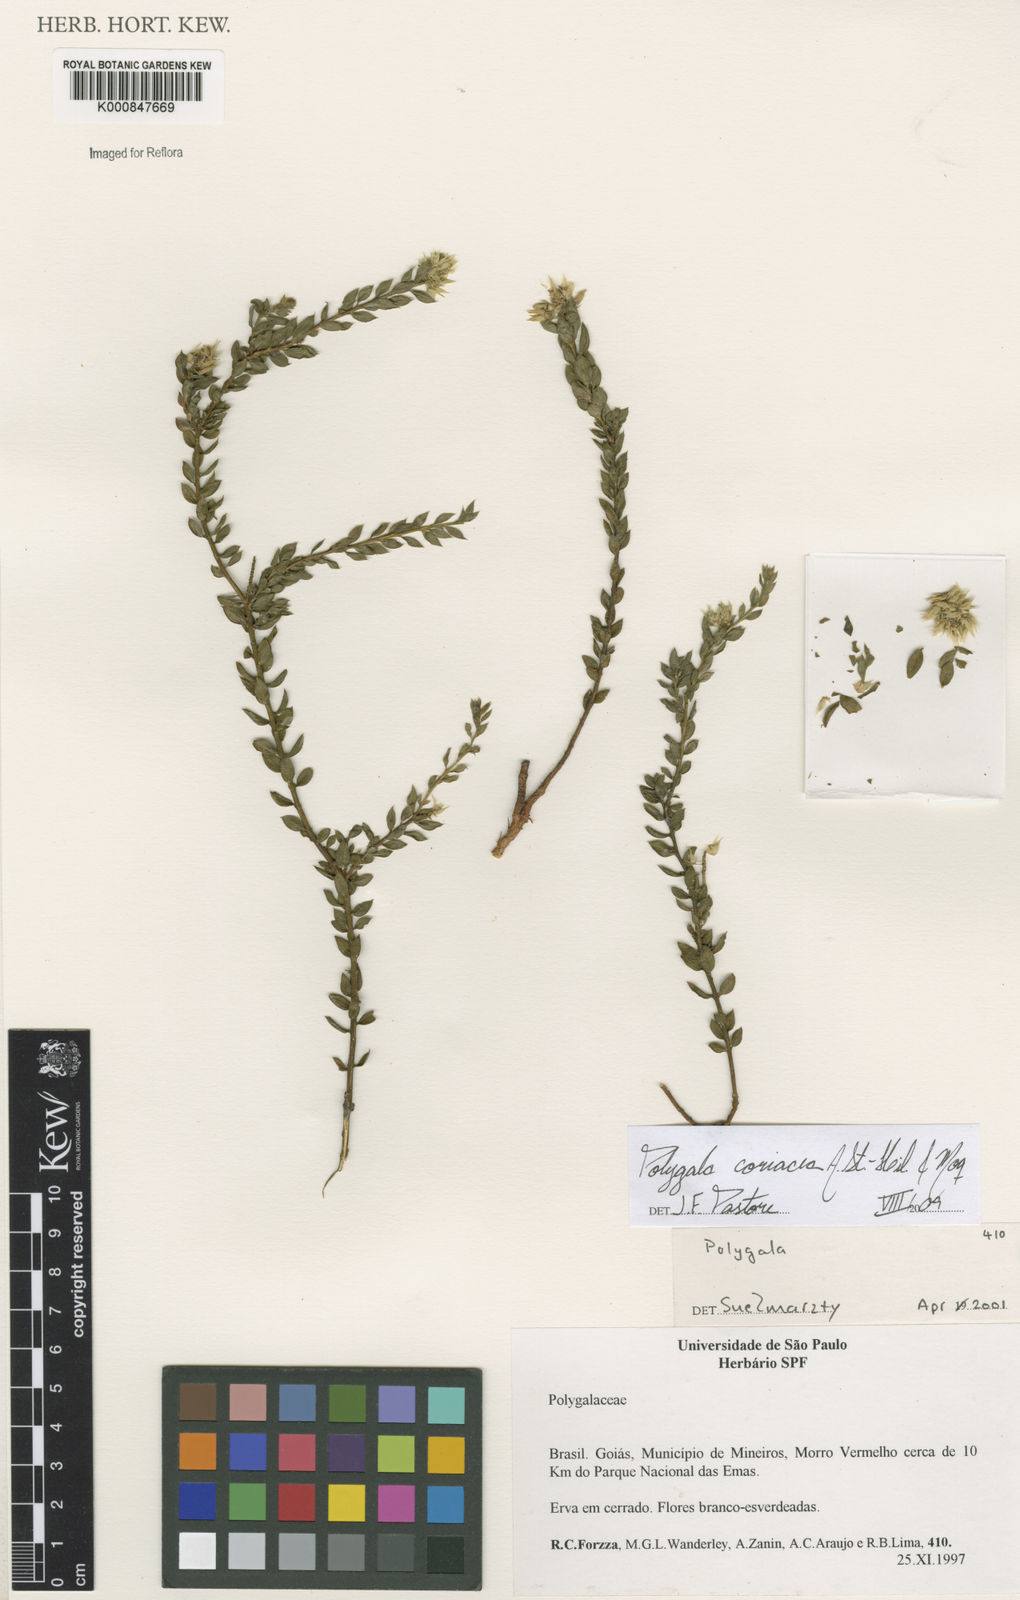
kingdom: Plantae
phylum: Tracheophyta
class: Magnoliopsida
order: Fabales
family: Polygalaceae
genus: Polygala
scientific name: Polygala coriacea
